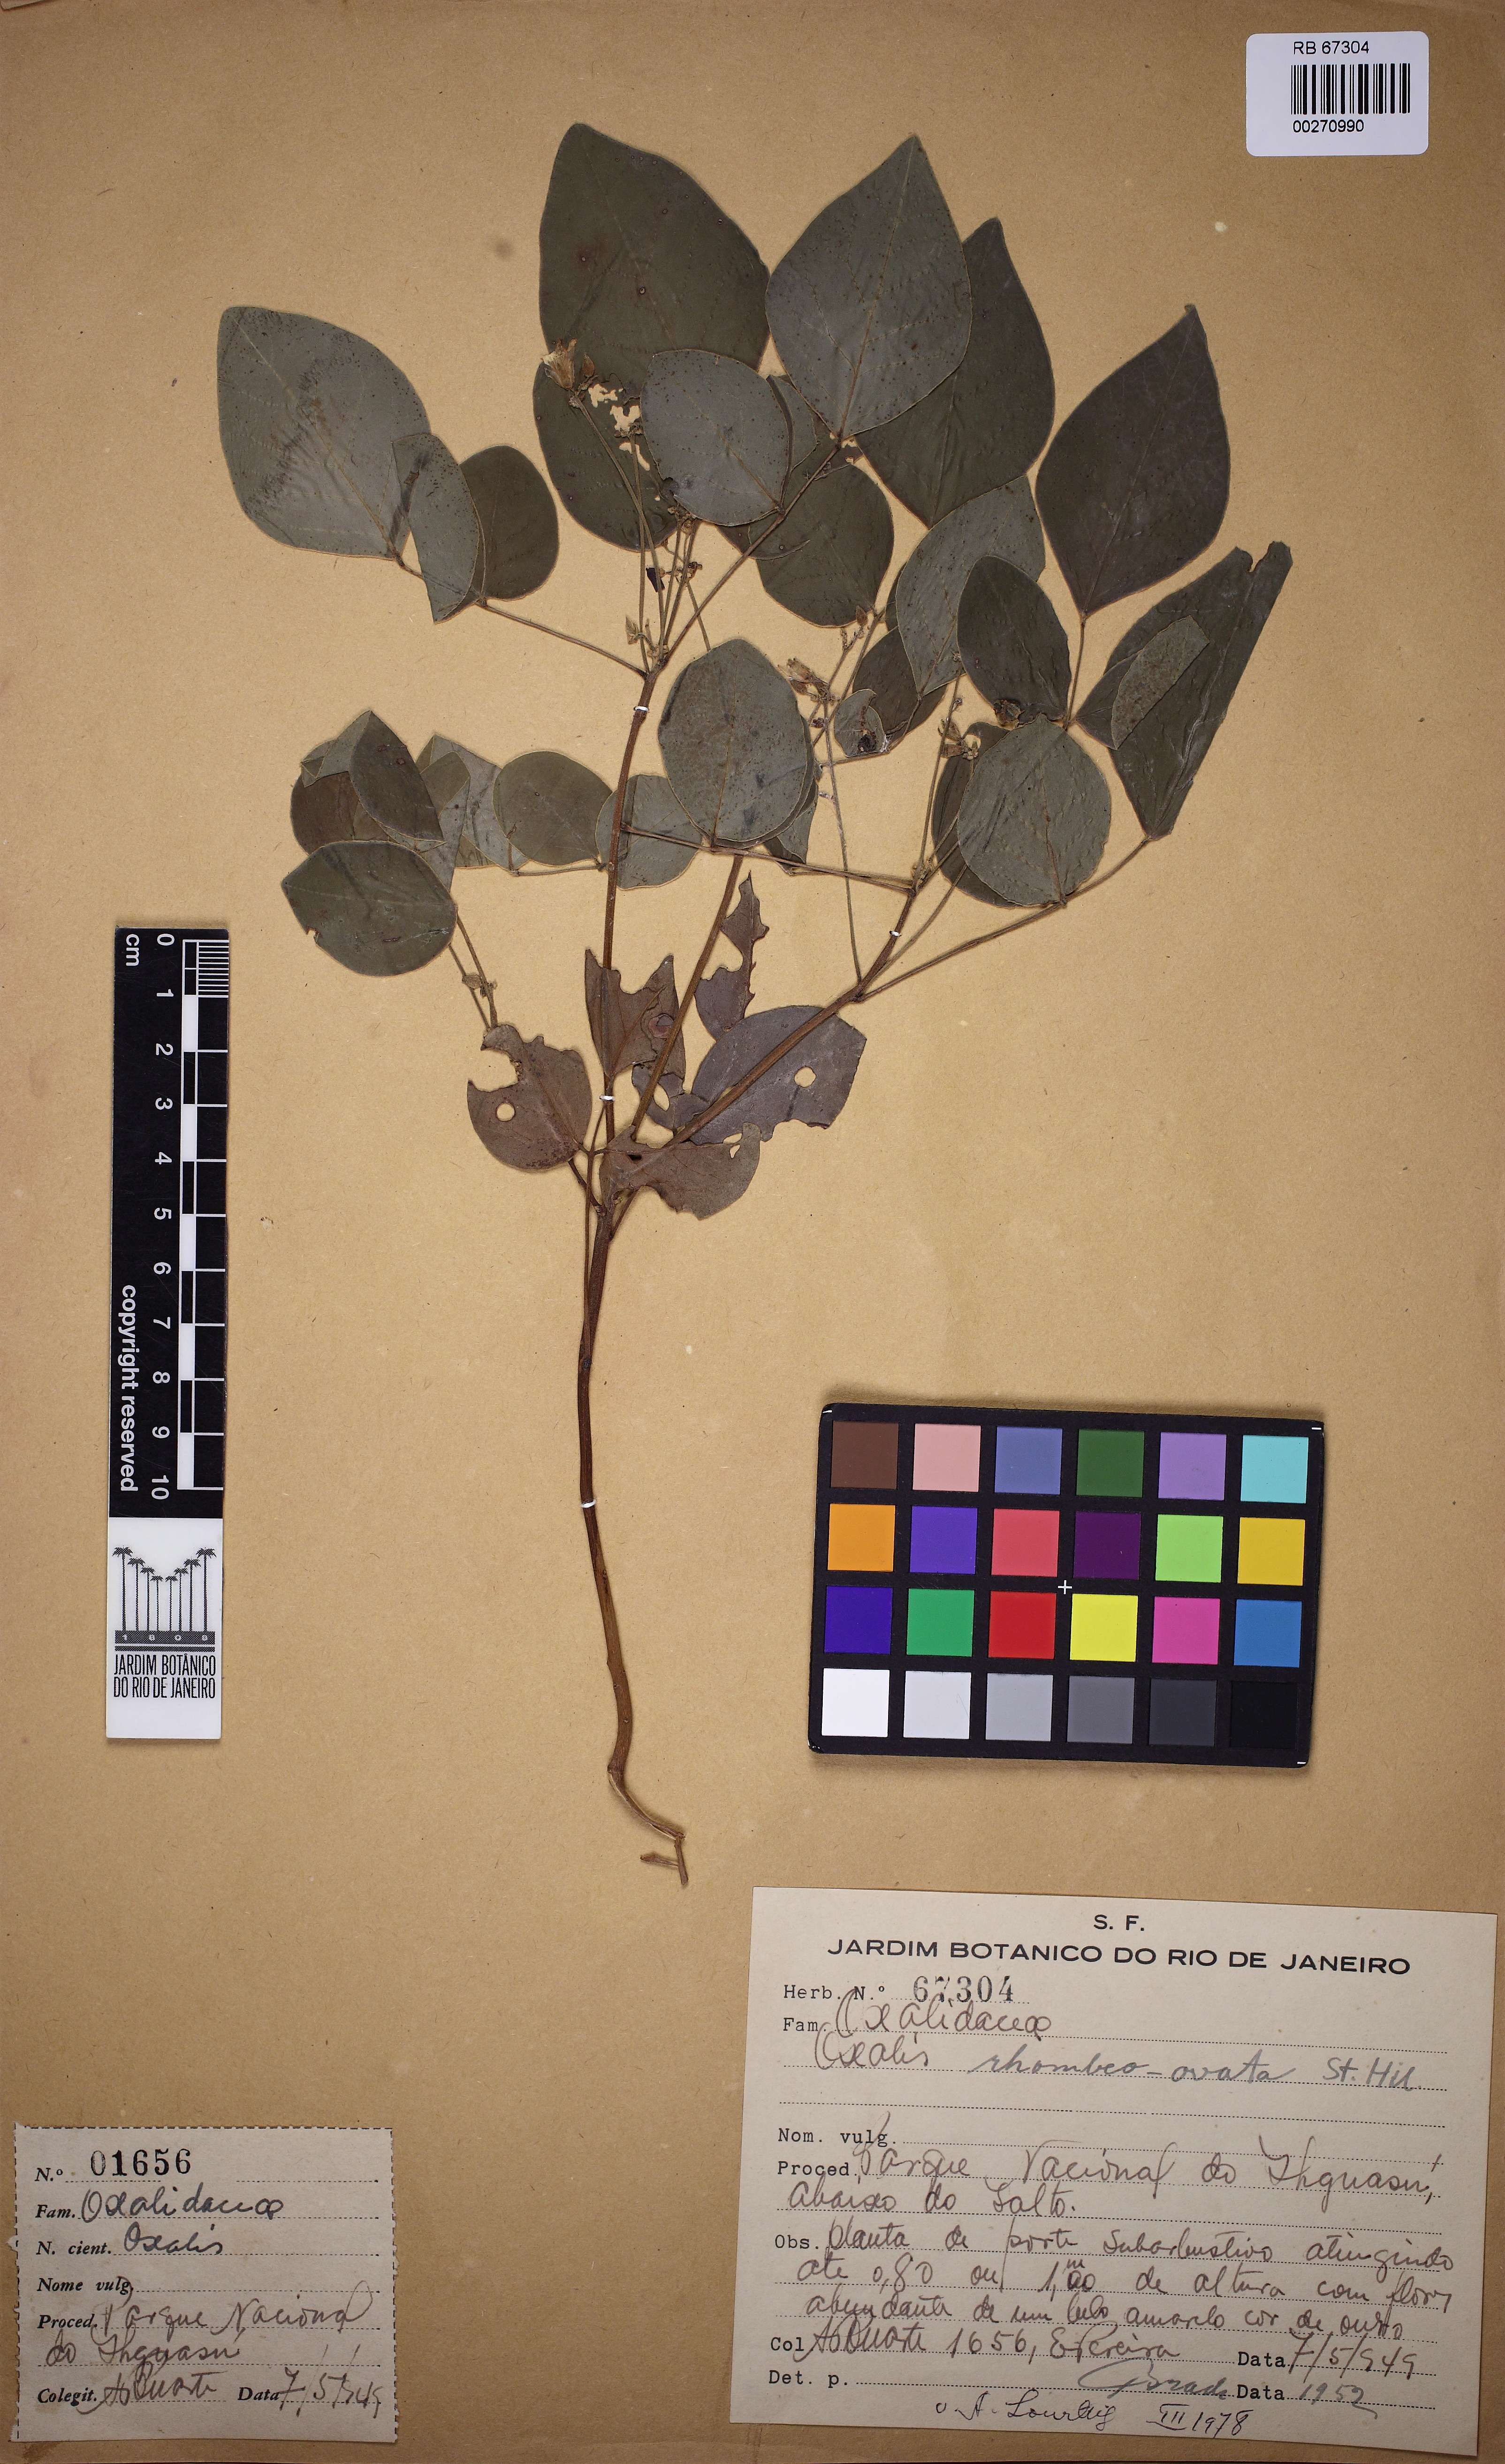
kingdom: Plantae
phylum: Tracheophyta
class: Magnoliopsida
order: Oxalidales
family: Oxalidaceae
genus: Oxalis
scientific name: Oxalis rhombeo-ovata
